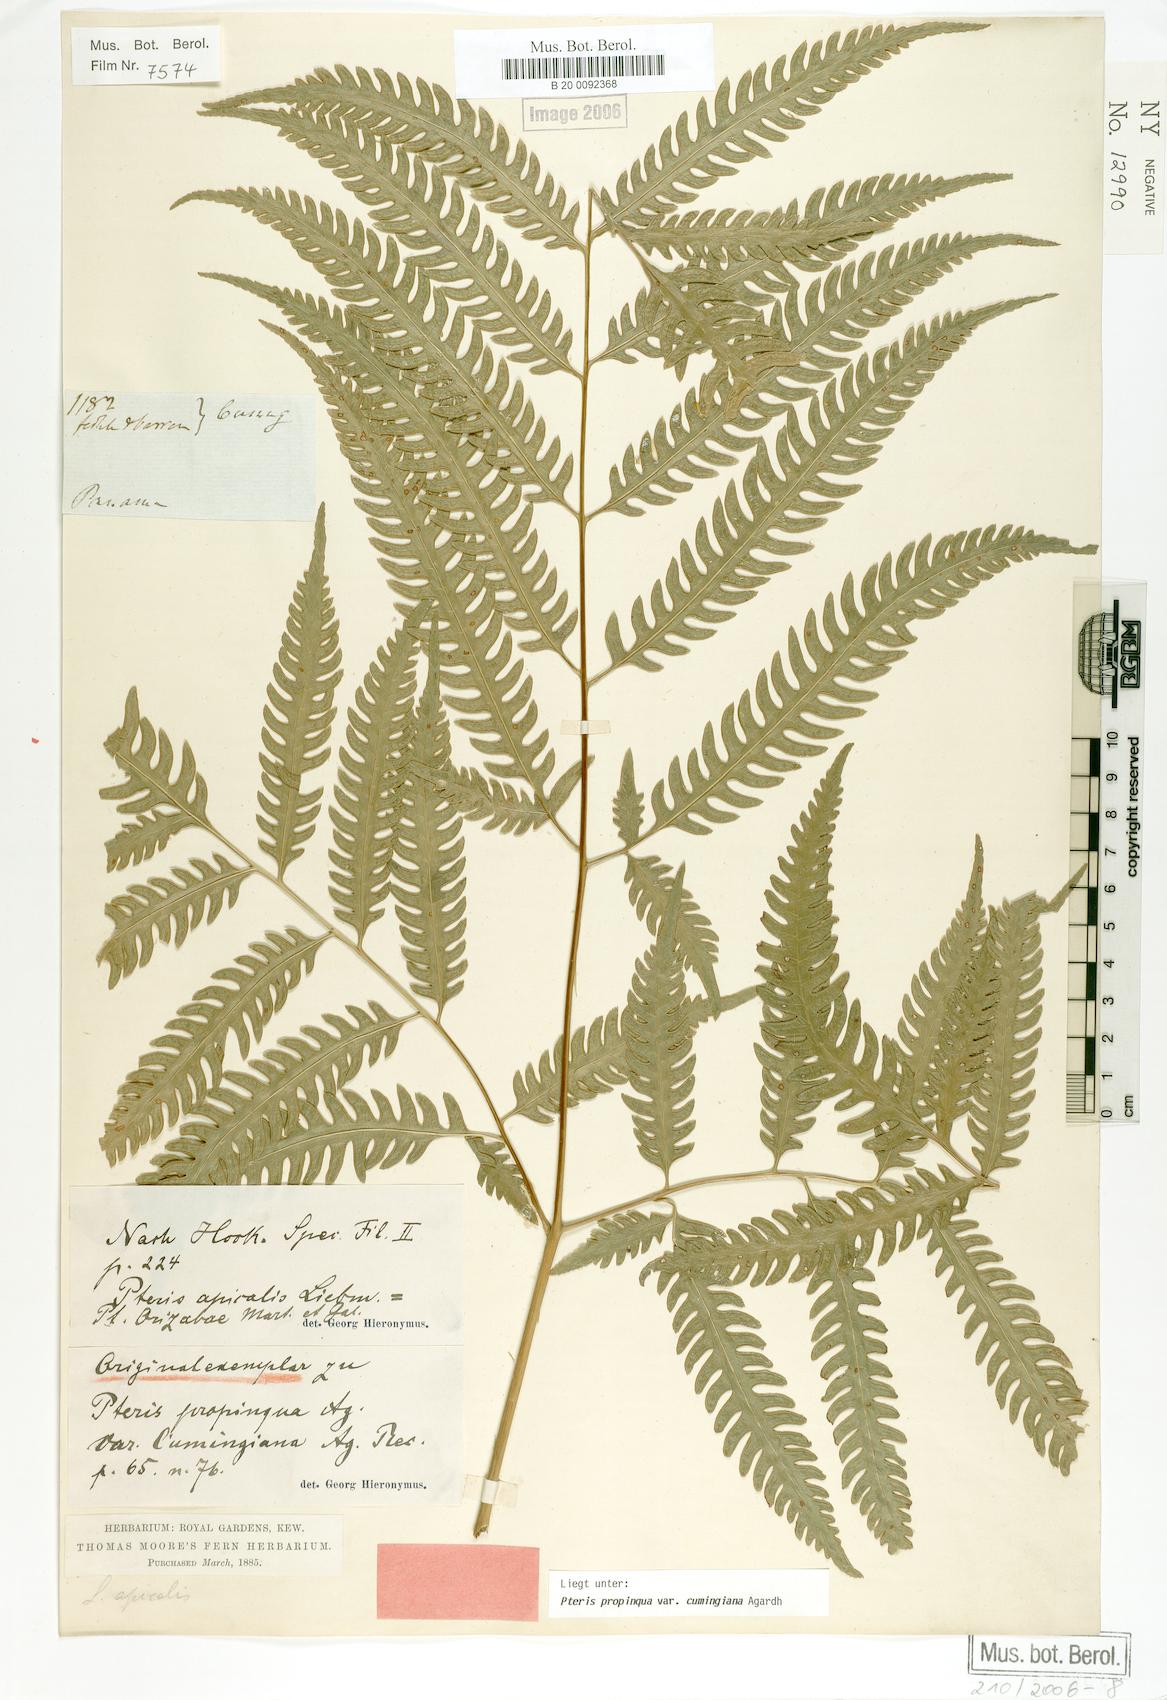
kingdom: Plantae
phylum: Tracheophyta
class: Polypodiopsida
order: Polypodiales
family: Pteridaceae
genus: Pteris
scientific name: Pteris propinqua
